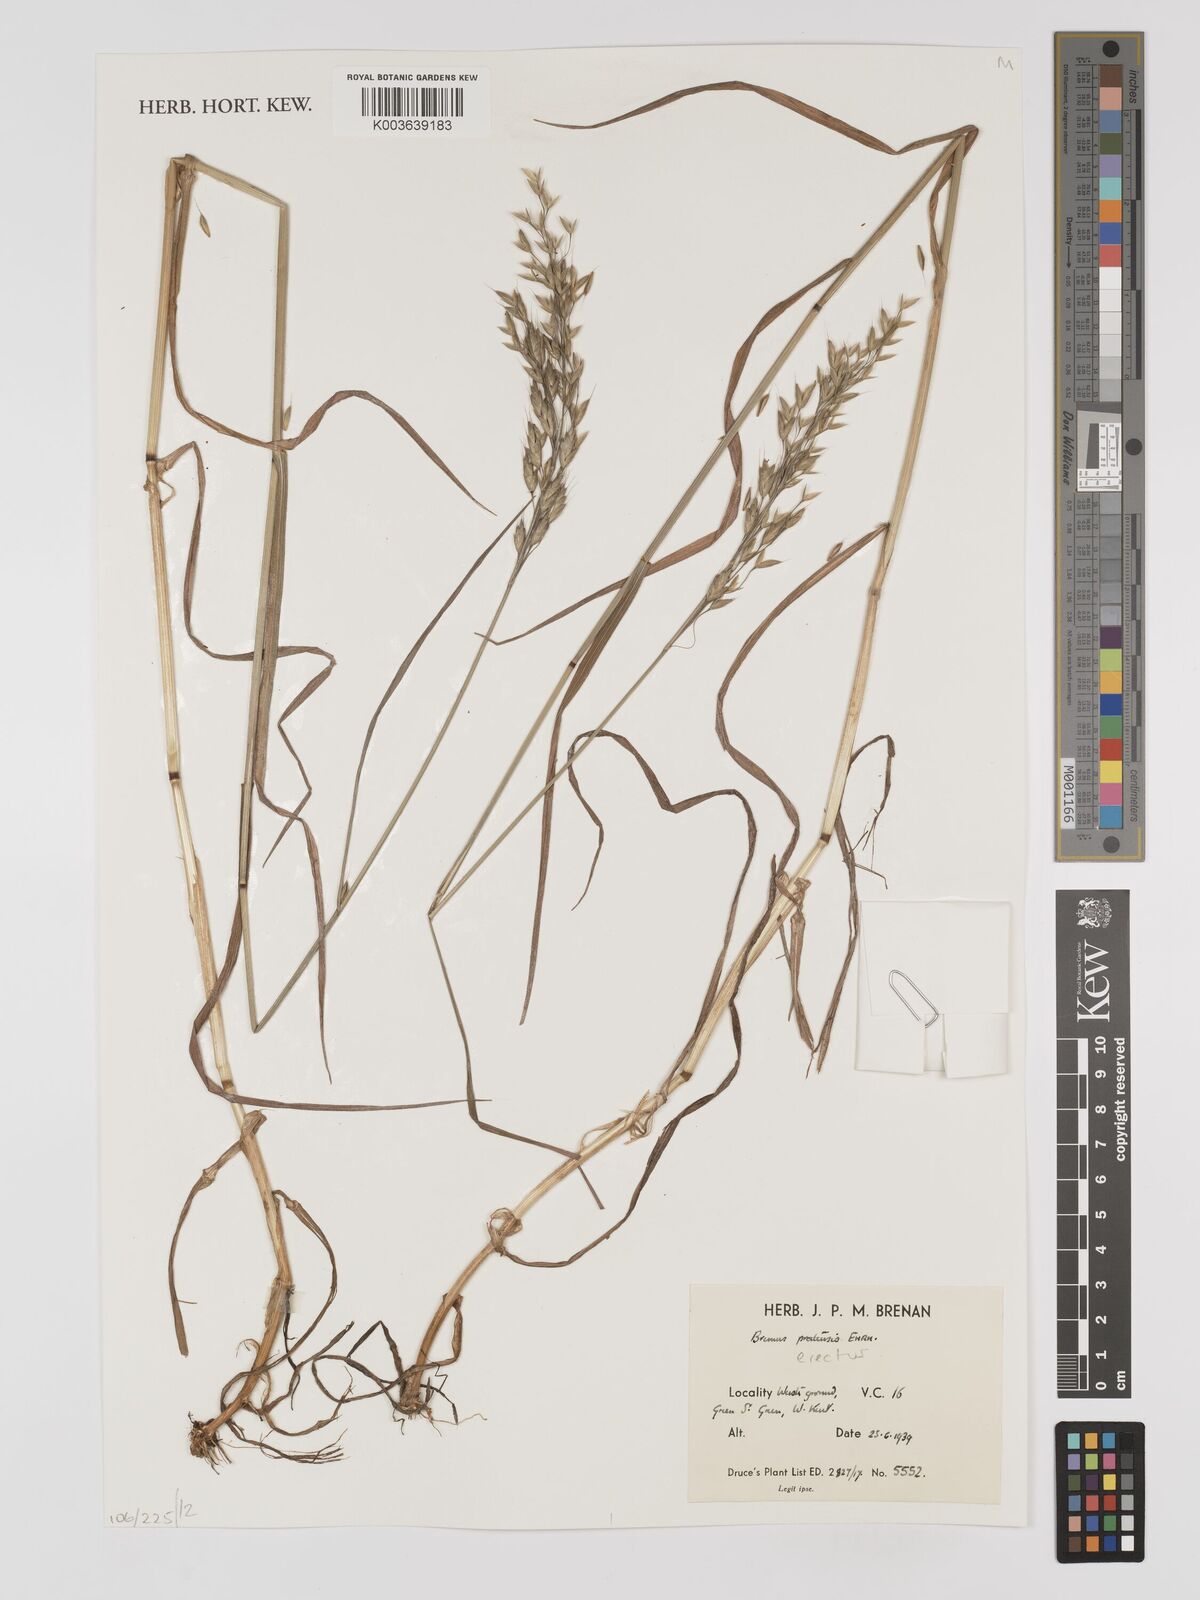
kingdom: Plantae
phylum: Tracheophyta
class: Liliopsida
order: Poales
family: Poaceae
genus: Bromus
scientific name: Bromus erectus
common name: Erect brome
